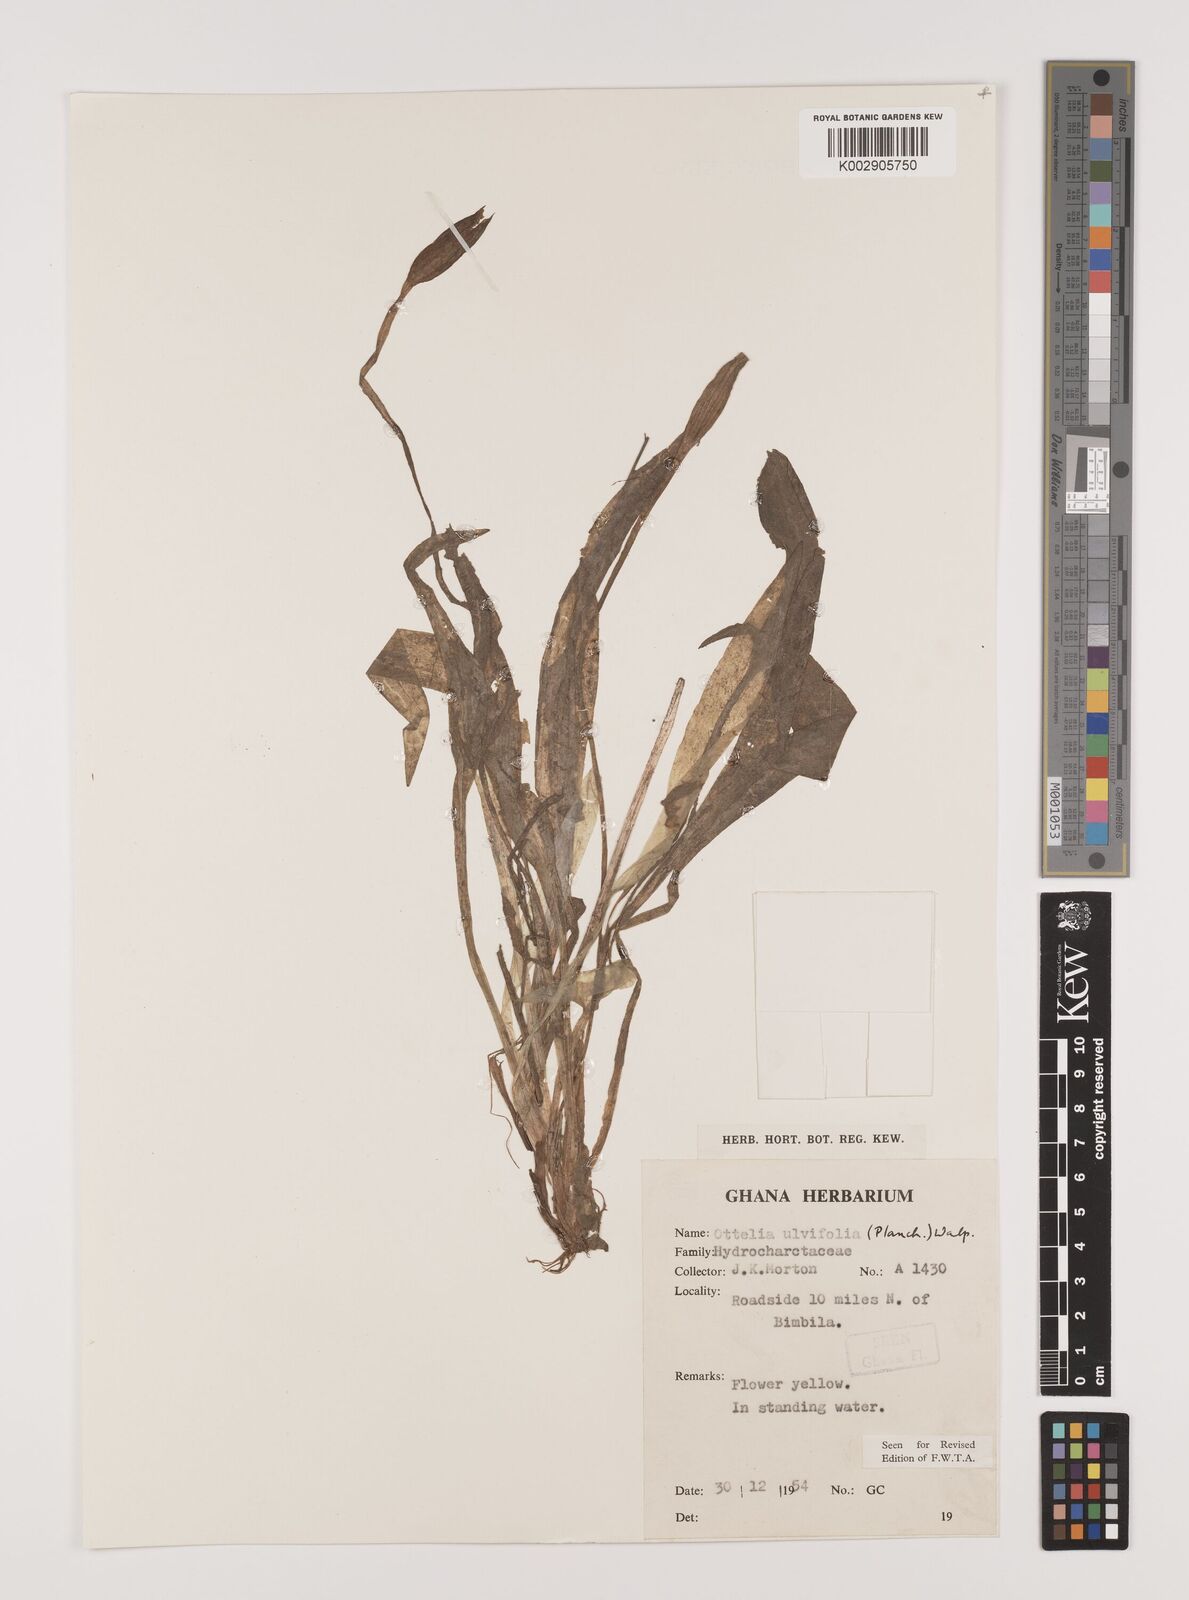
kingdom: Plantae
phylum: Tracheophyta
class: Liliopsida
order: Alismatales
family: Hydrocharitaceae
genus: Ottelia
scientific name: Ottelia ulvifolia
